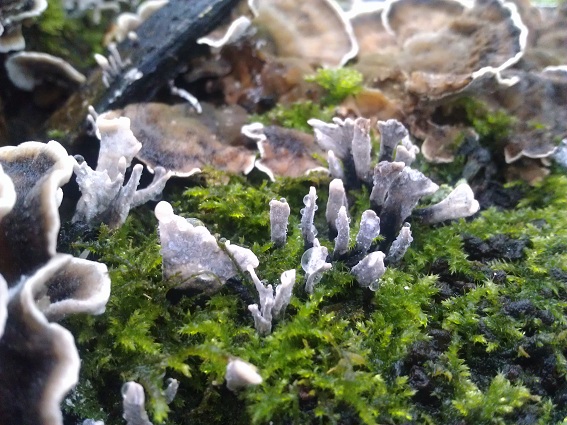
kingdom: Fungi
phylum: Ascomycota
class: Sordariomycetes
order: Xylariales
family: Xylariaceae
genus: Xylaria
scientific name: Xylaria hypoxylon
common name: grenet stødsvamp
